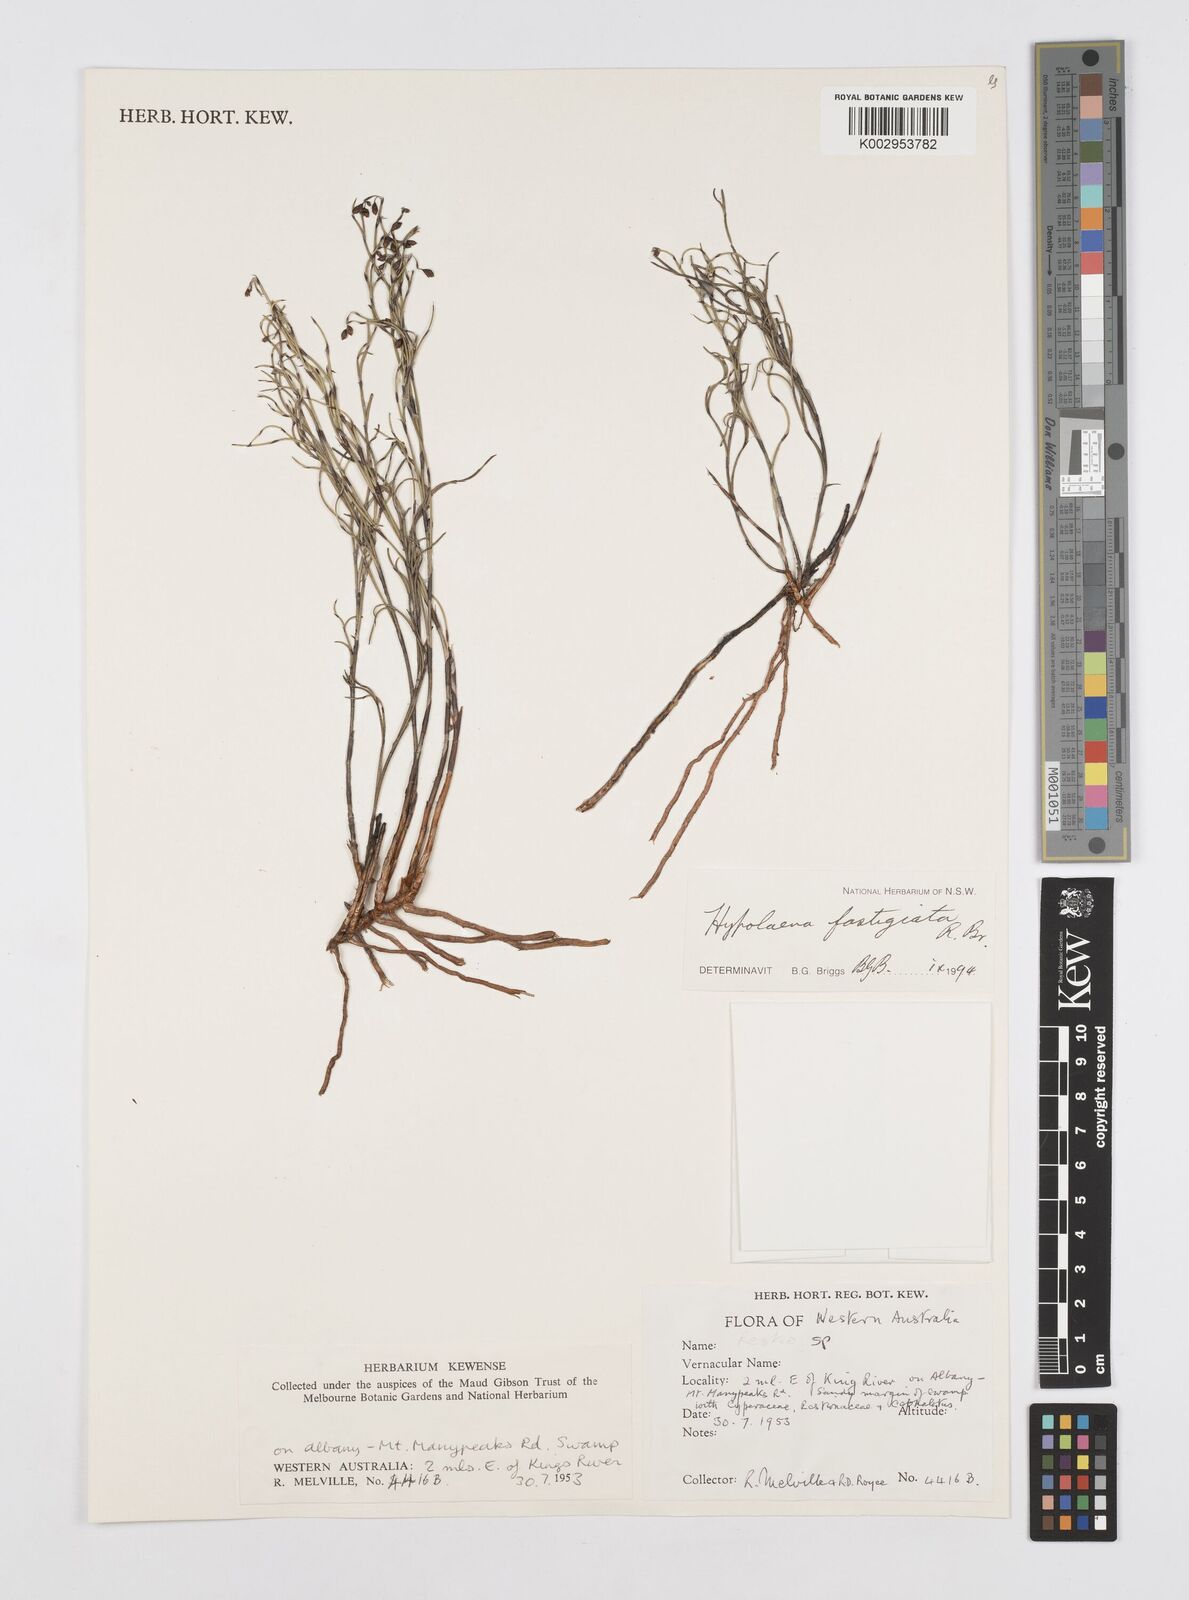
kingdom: Plantae
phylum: Tracheophyta
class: Liliopsida
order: Poales
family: Restionaceae
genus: Hypolaena
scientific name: Hypolaena fastigiata
